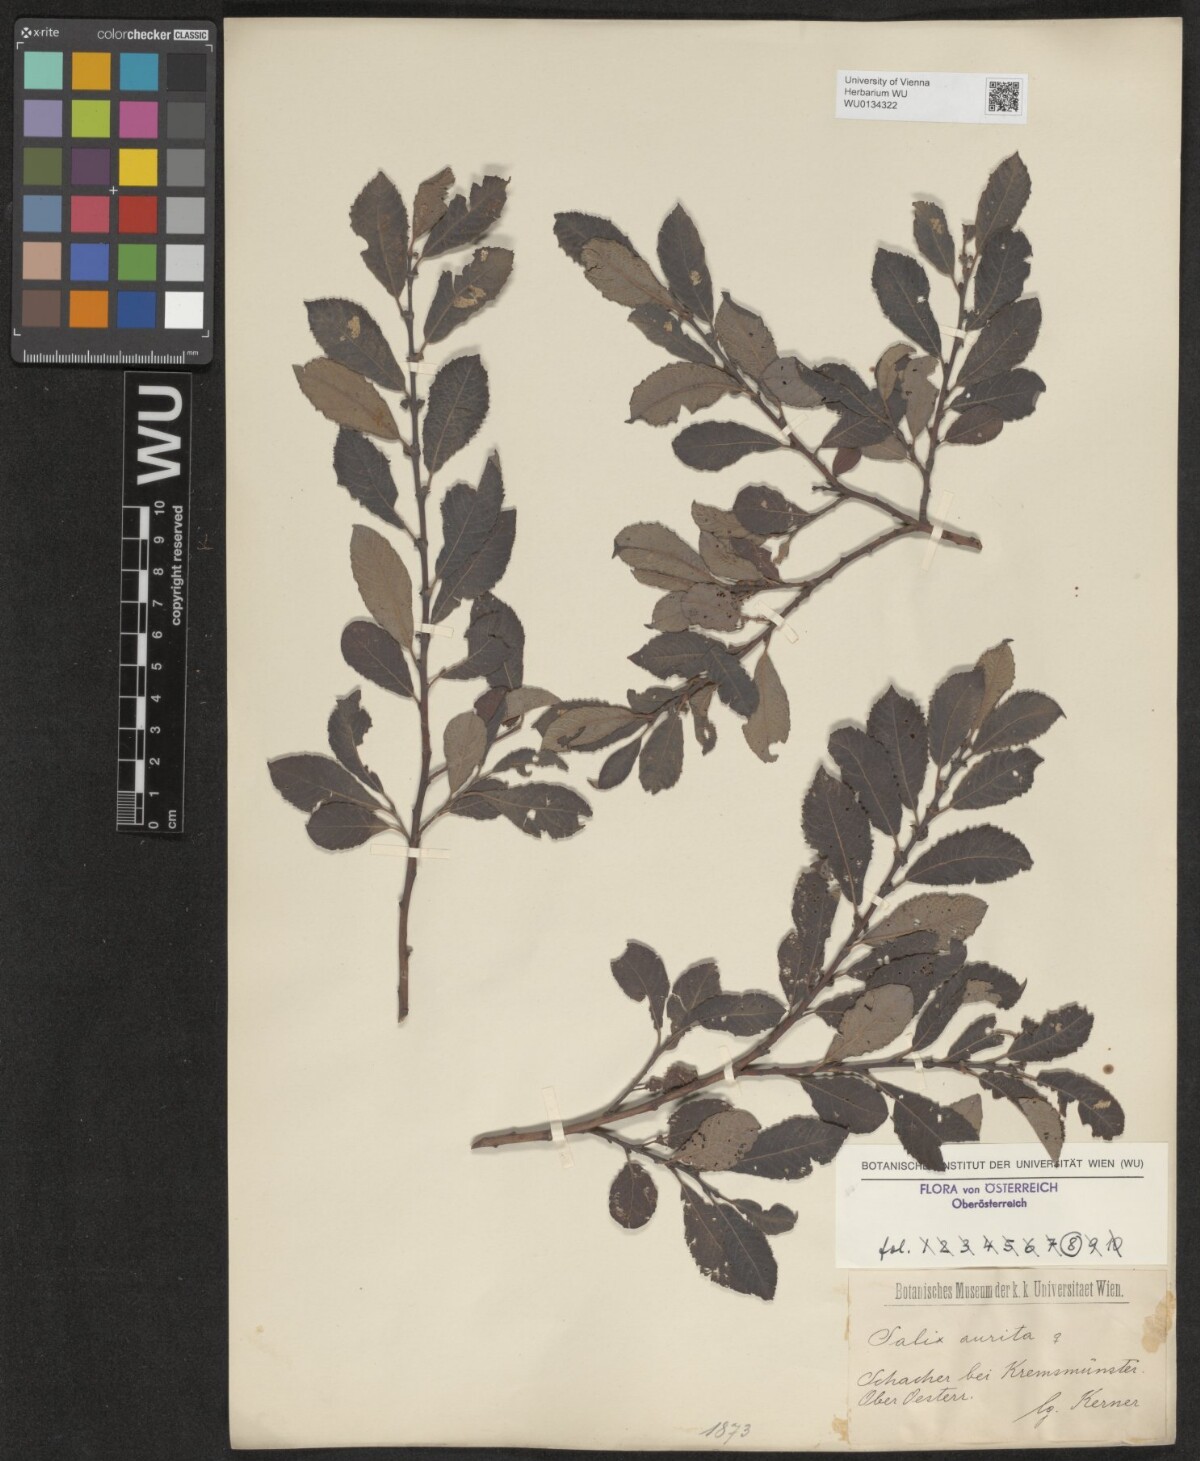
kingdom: Plantae
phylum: Tracheophyta
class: Magnoliopsida
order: Malpighiales
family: Salicaceae
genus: Salix
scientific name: Salix aurita
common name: Eared willow
